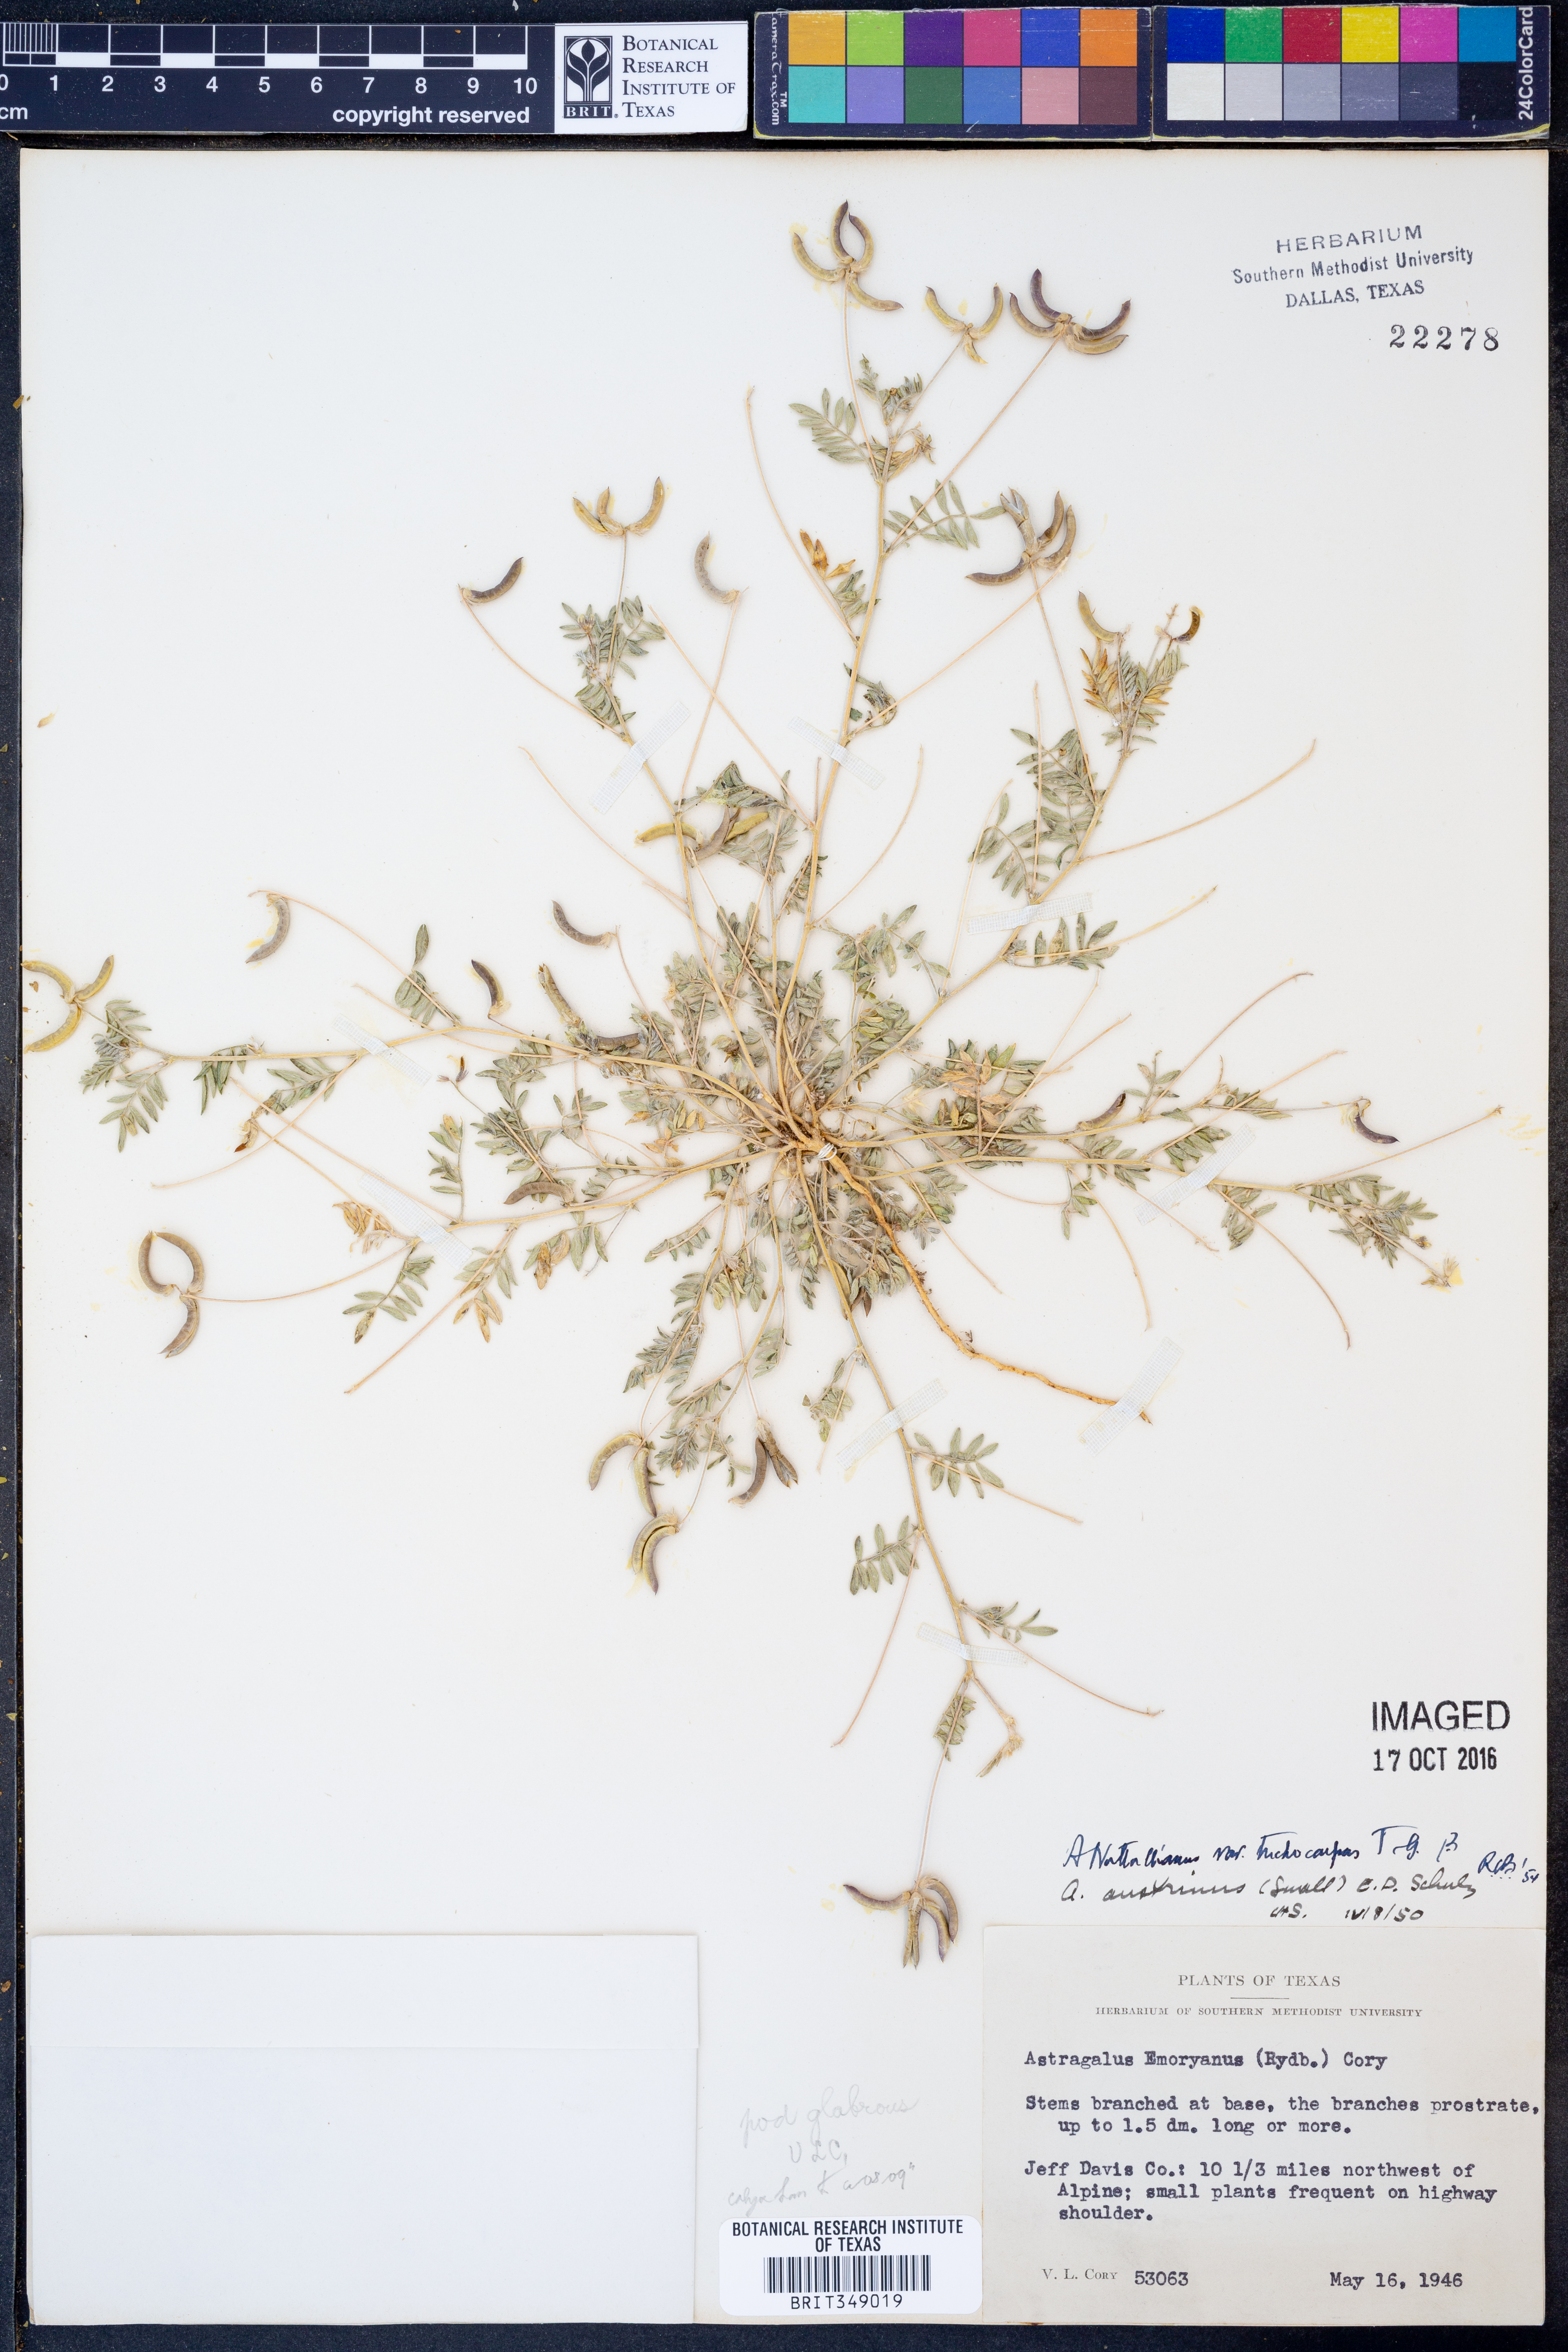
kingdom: Plantae
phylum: Tracheophyta
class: Magnoliopsida
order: Fabales
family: Fabaceae
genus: Astragalus
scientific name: Astragalus nuttallianus
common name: Smallflowered milkvetch
